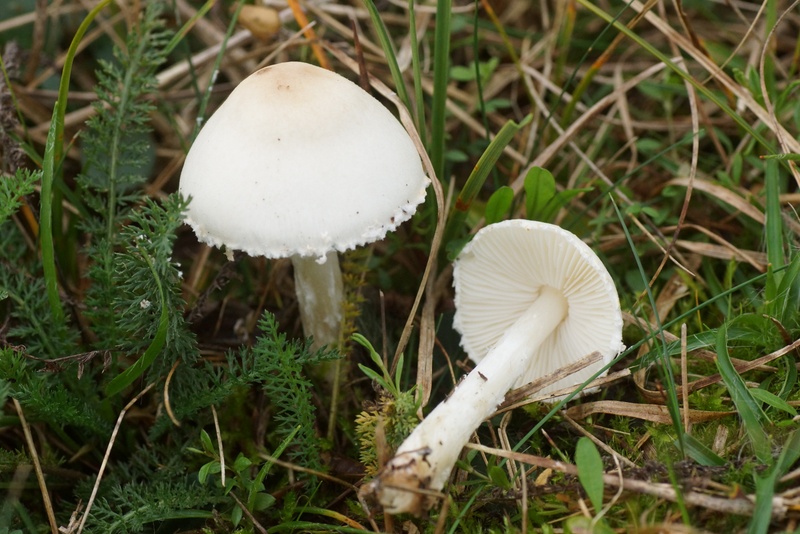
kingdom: Fungi
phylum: Basidiomycota
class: Agaricomycetes
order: Agaricales
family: Agaricaceae
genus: Lepiota
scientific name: Lepiota erminea
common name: hvid parasolhat
